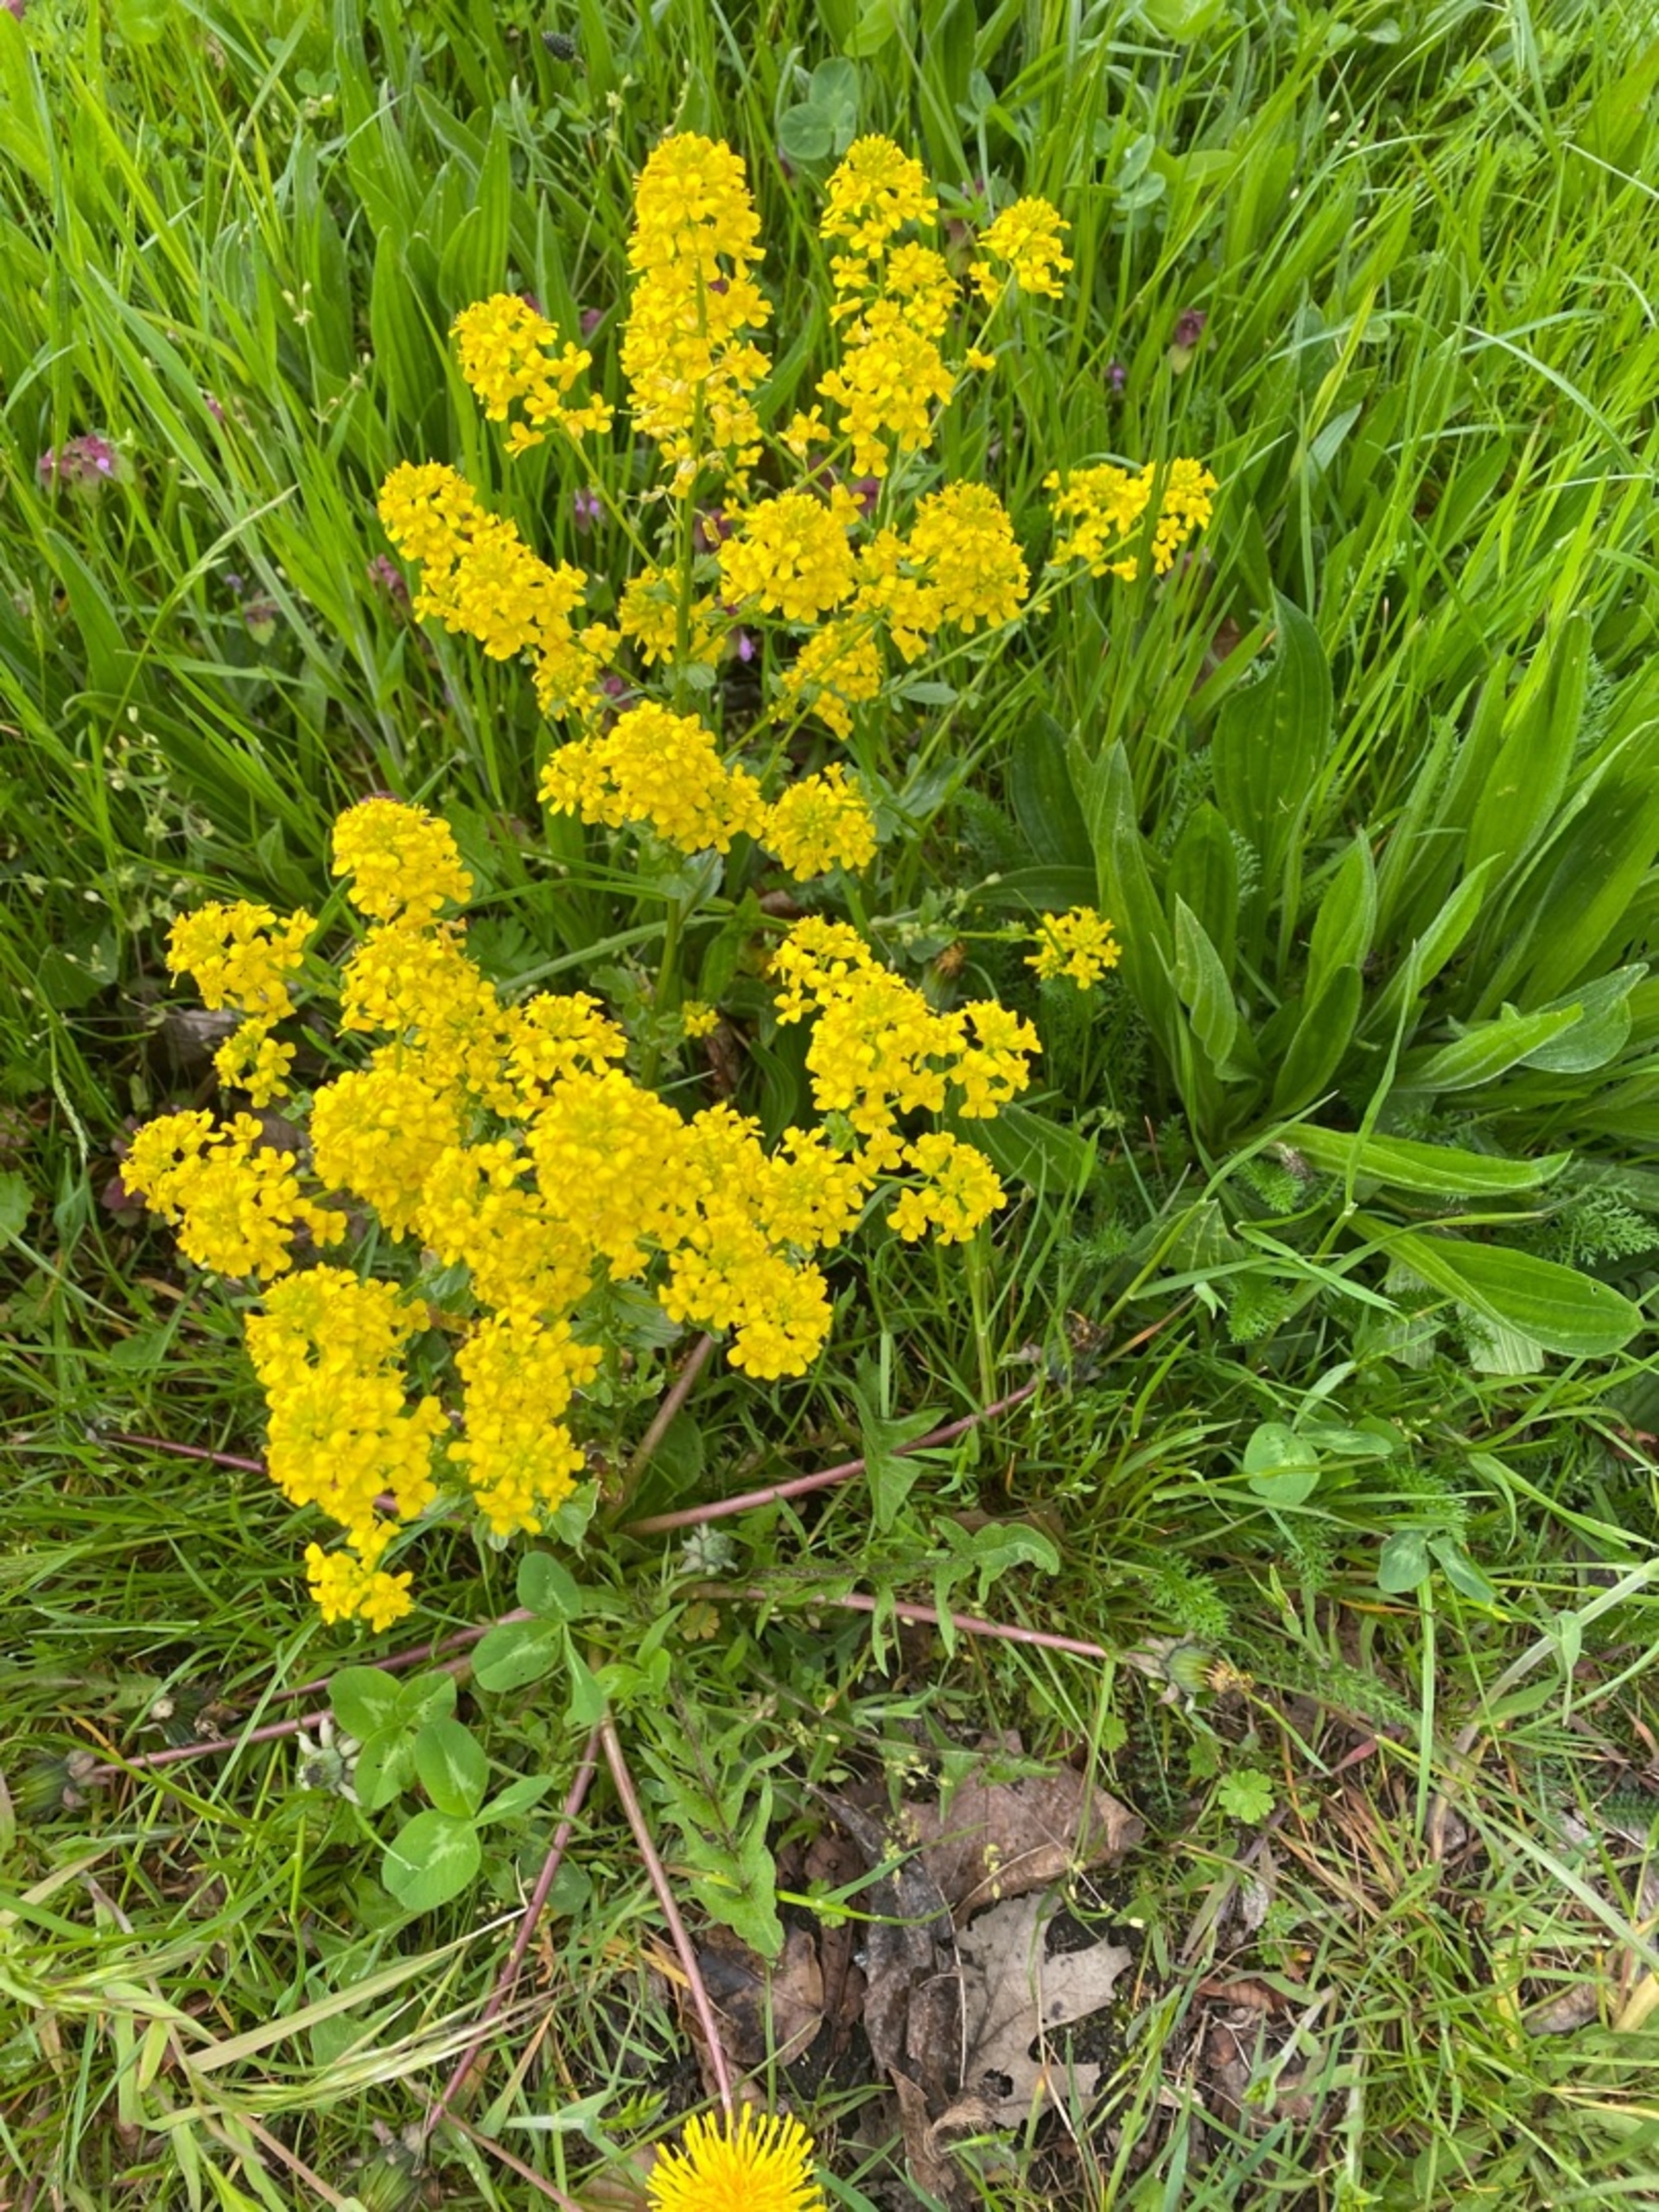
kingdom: Plantae
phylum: Tracheophyta
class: Magnoliopsida
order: Brassicales
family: Brassicaceae
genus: Barbarea
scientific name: Barbarea
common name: Vinterkarseslægten
